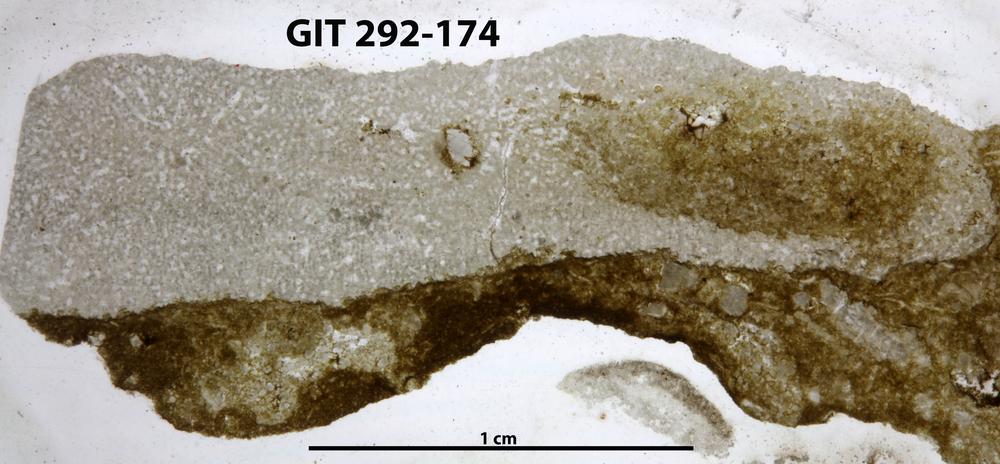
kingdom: Animalia
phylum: Porifera
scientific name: Porifera
